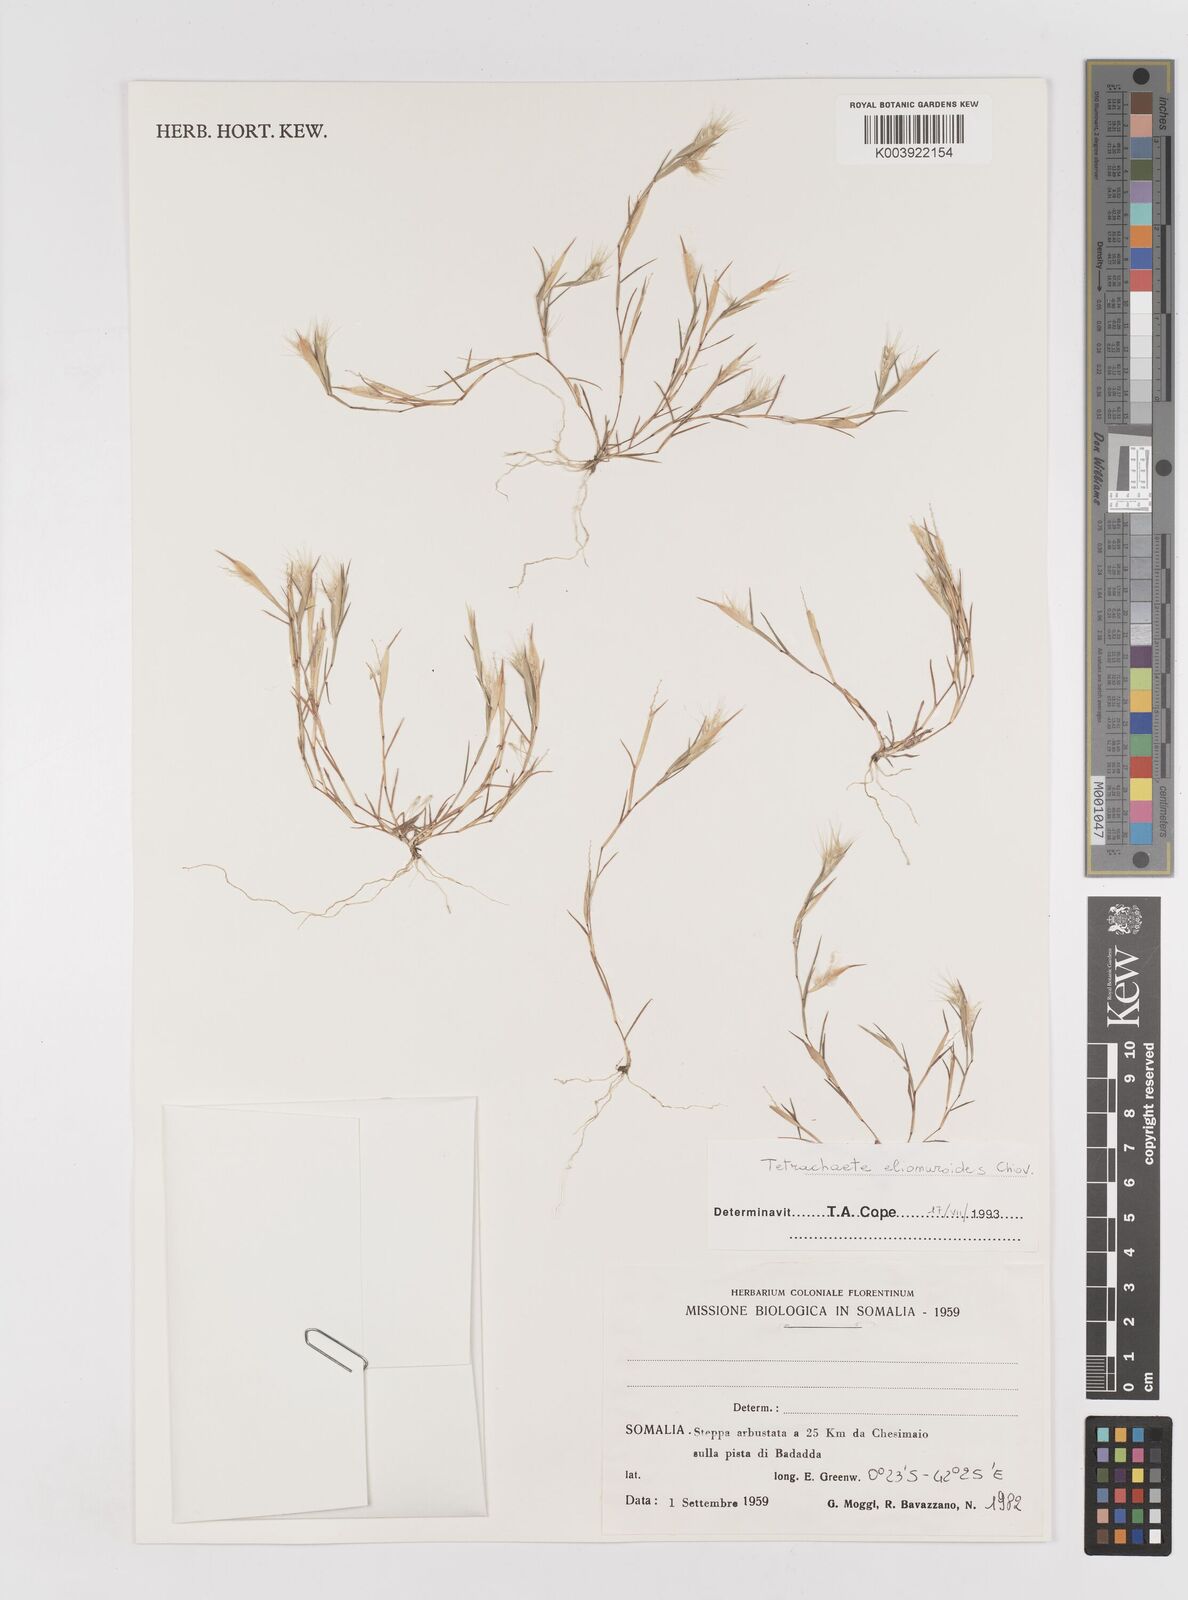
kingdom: Plantae
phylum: Tracheophyta
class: Liliopsida
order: Poales
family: Poaceae
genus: Tetrachaete
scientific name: Tetrachaete elionuroides
